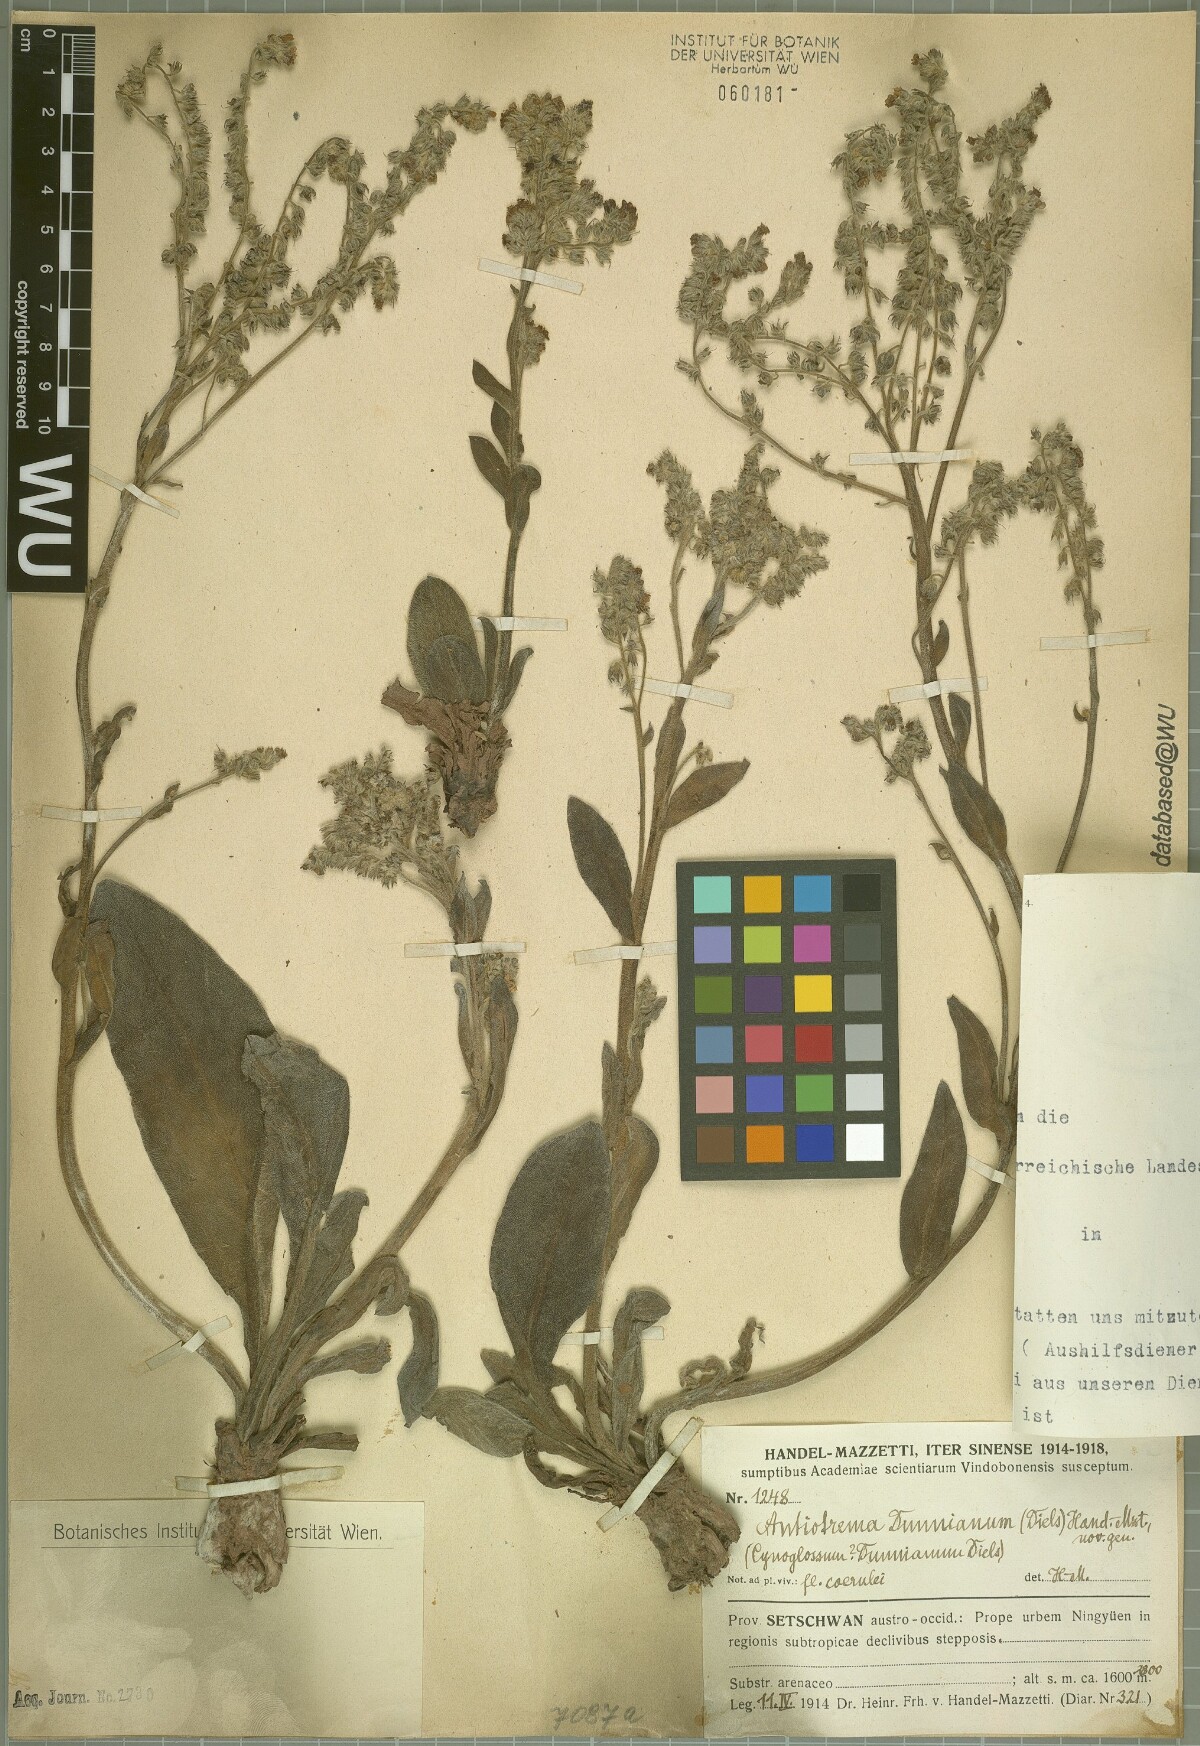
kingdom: Plantae
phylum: Tracheophyta
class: Magnoliopsida
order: Boraginales
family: Boraginaceae
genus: Antiotrema
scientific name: Antiotrema dunnianum
